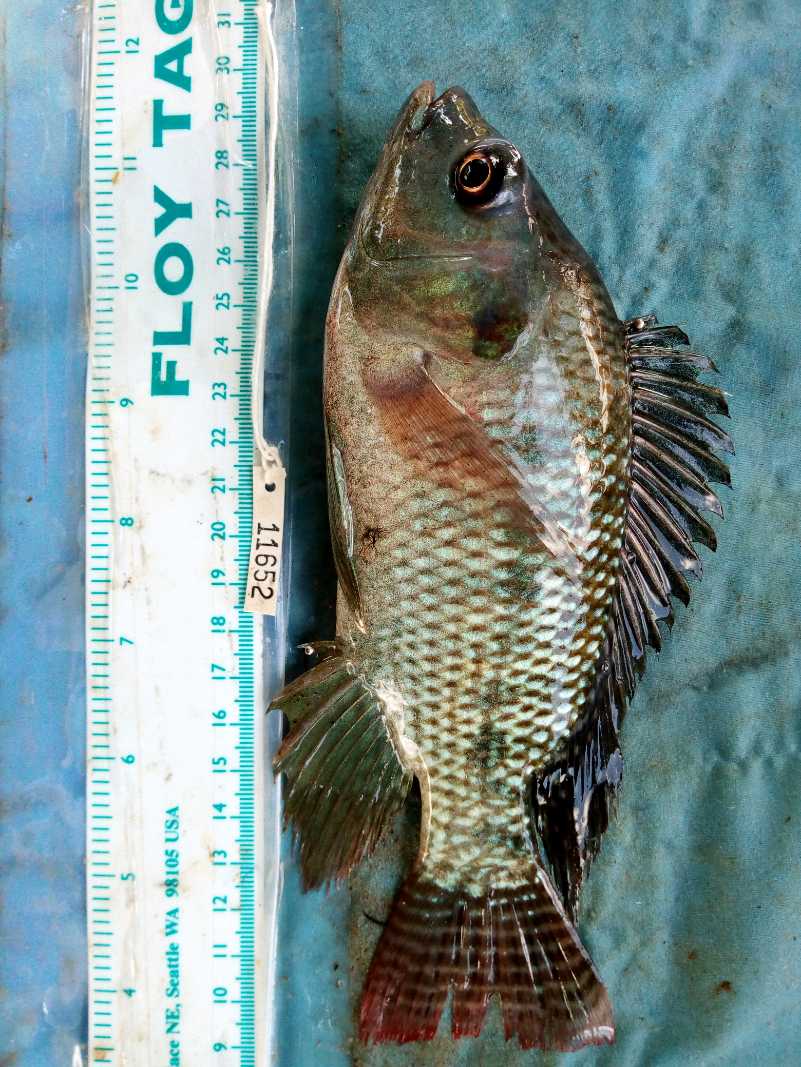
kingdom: Animalia
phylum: Chordata
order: Perciformes
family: Cichlidae
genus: Oreochromis
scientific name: Oreochromis niloticus
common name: Nile tilapia
